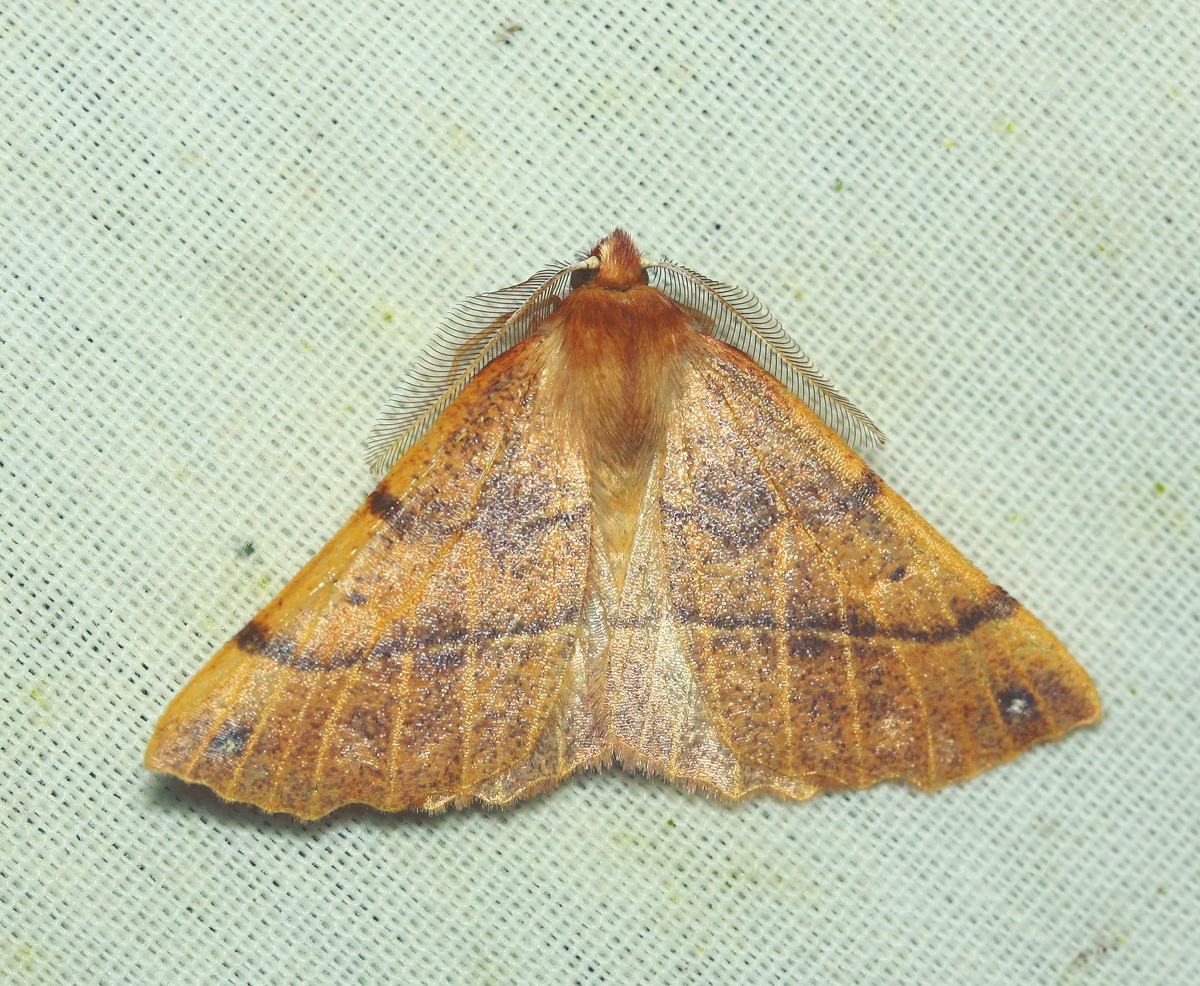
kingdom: Animalia
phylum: Arthropoda
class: Insecta
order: Lepidoptera
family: Geometridae
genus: Colotois
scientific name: Colotois pennaria
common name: Løvfaldsmåler
